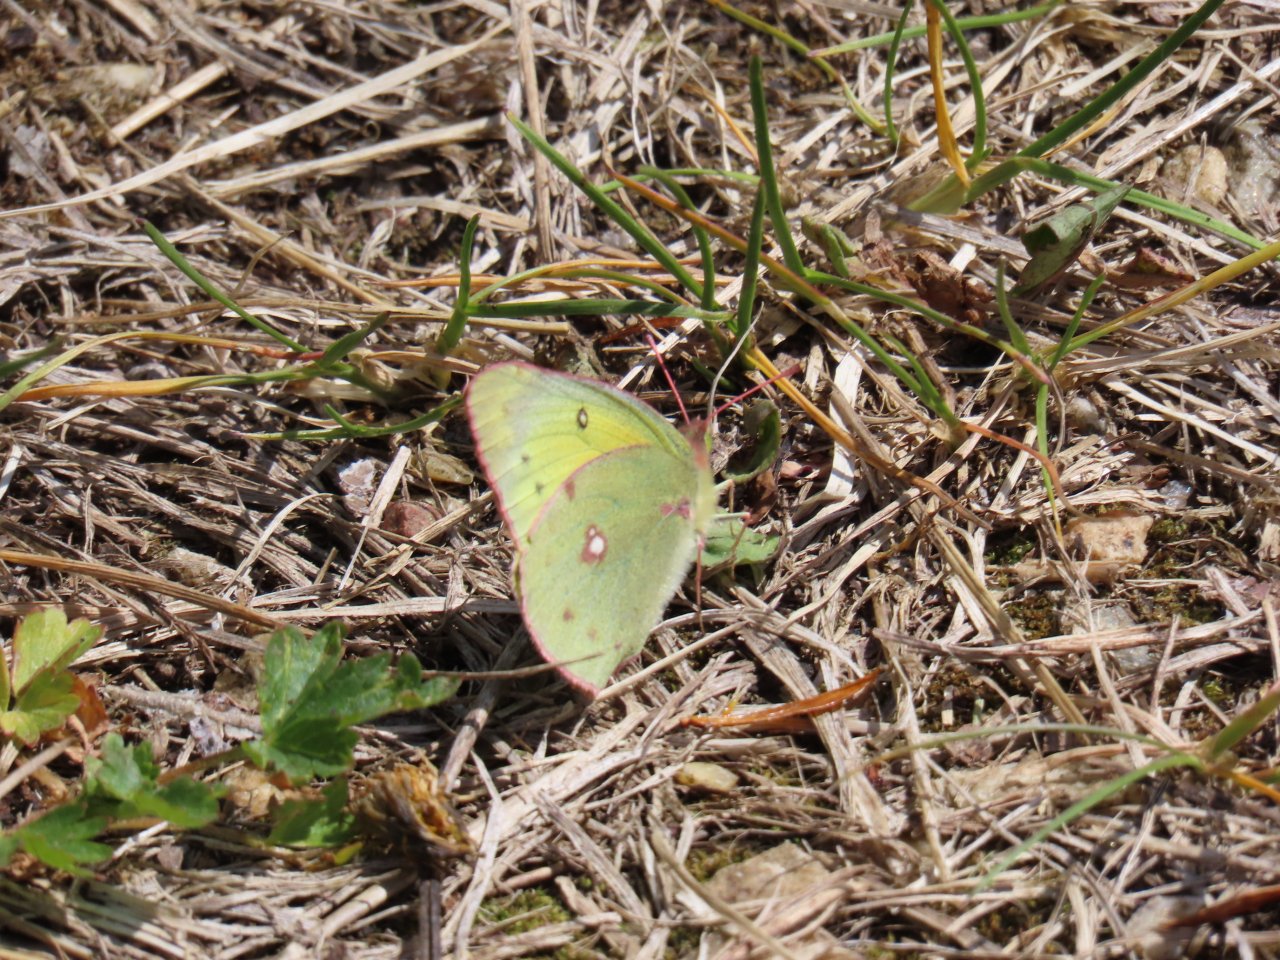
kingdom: Animalia
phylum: Arthropoda
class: Insecta
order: Lepidoptera
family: Pieridae
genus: Colias
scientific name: Colias eurytheme
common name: Orange Sulphur
